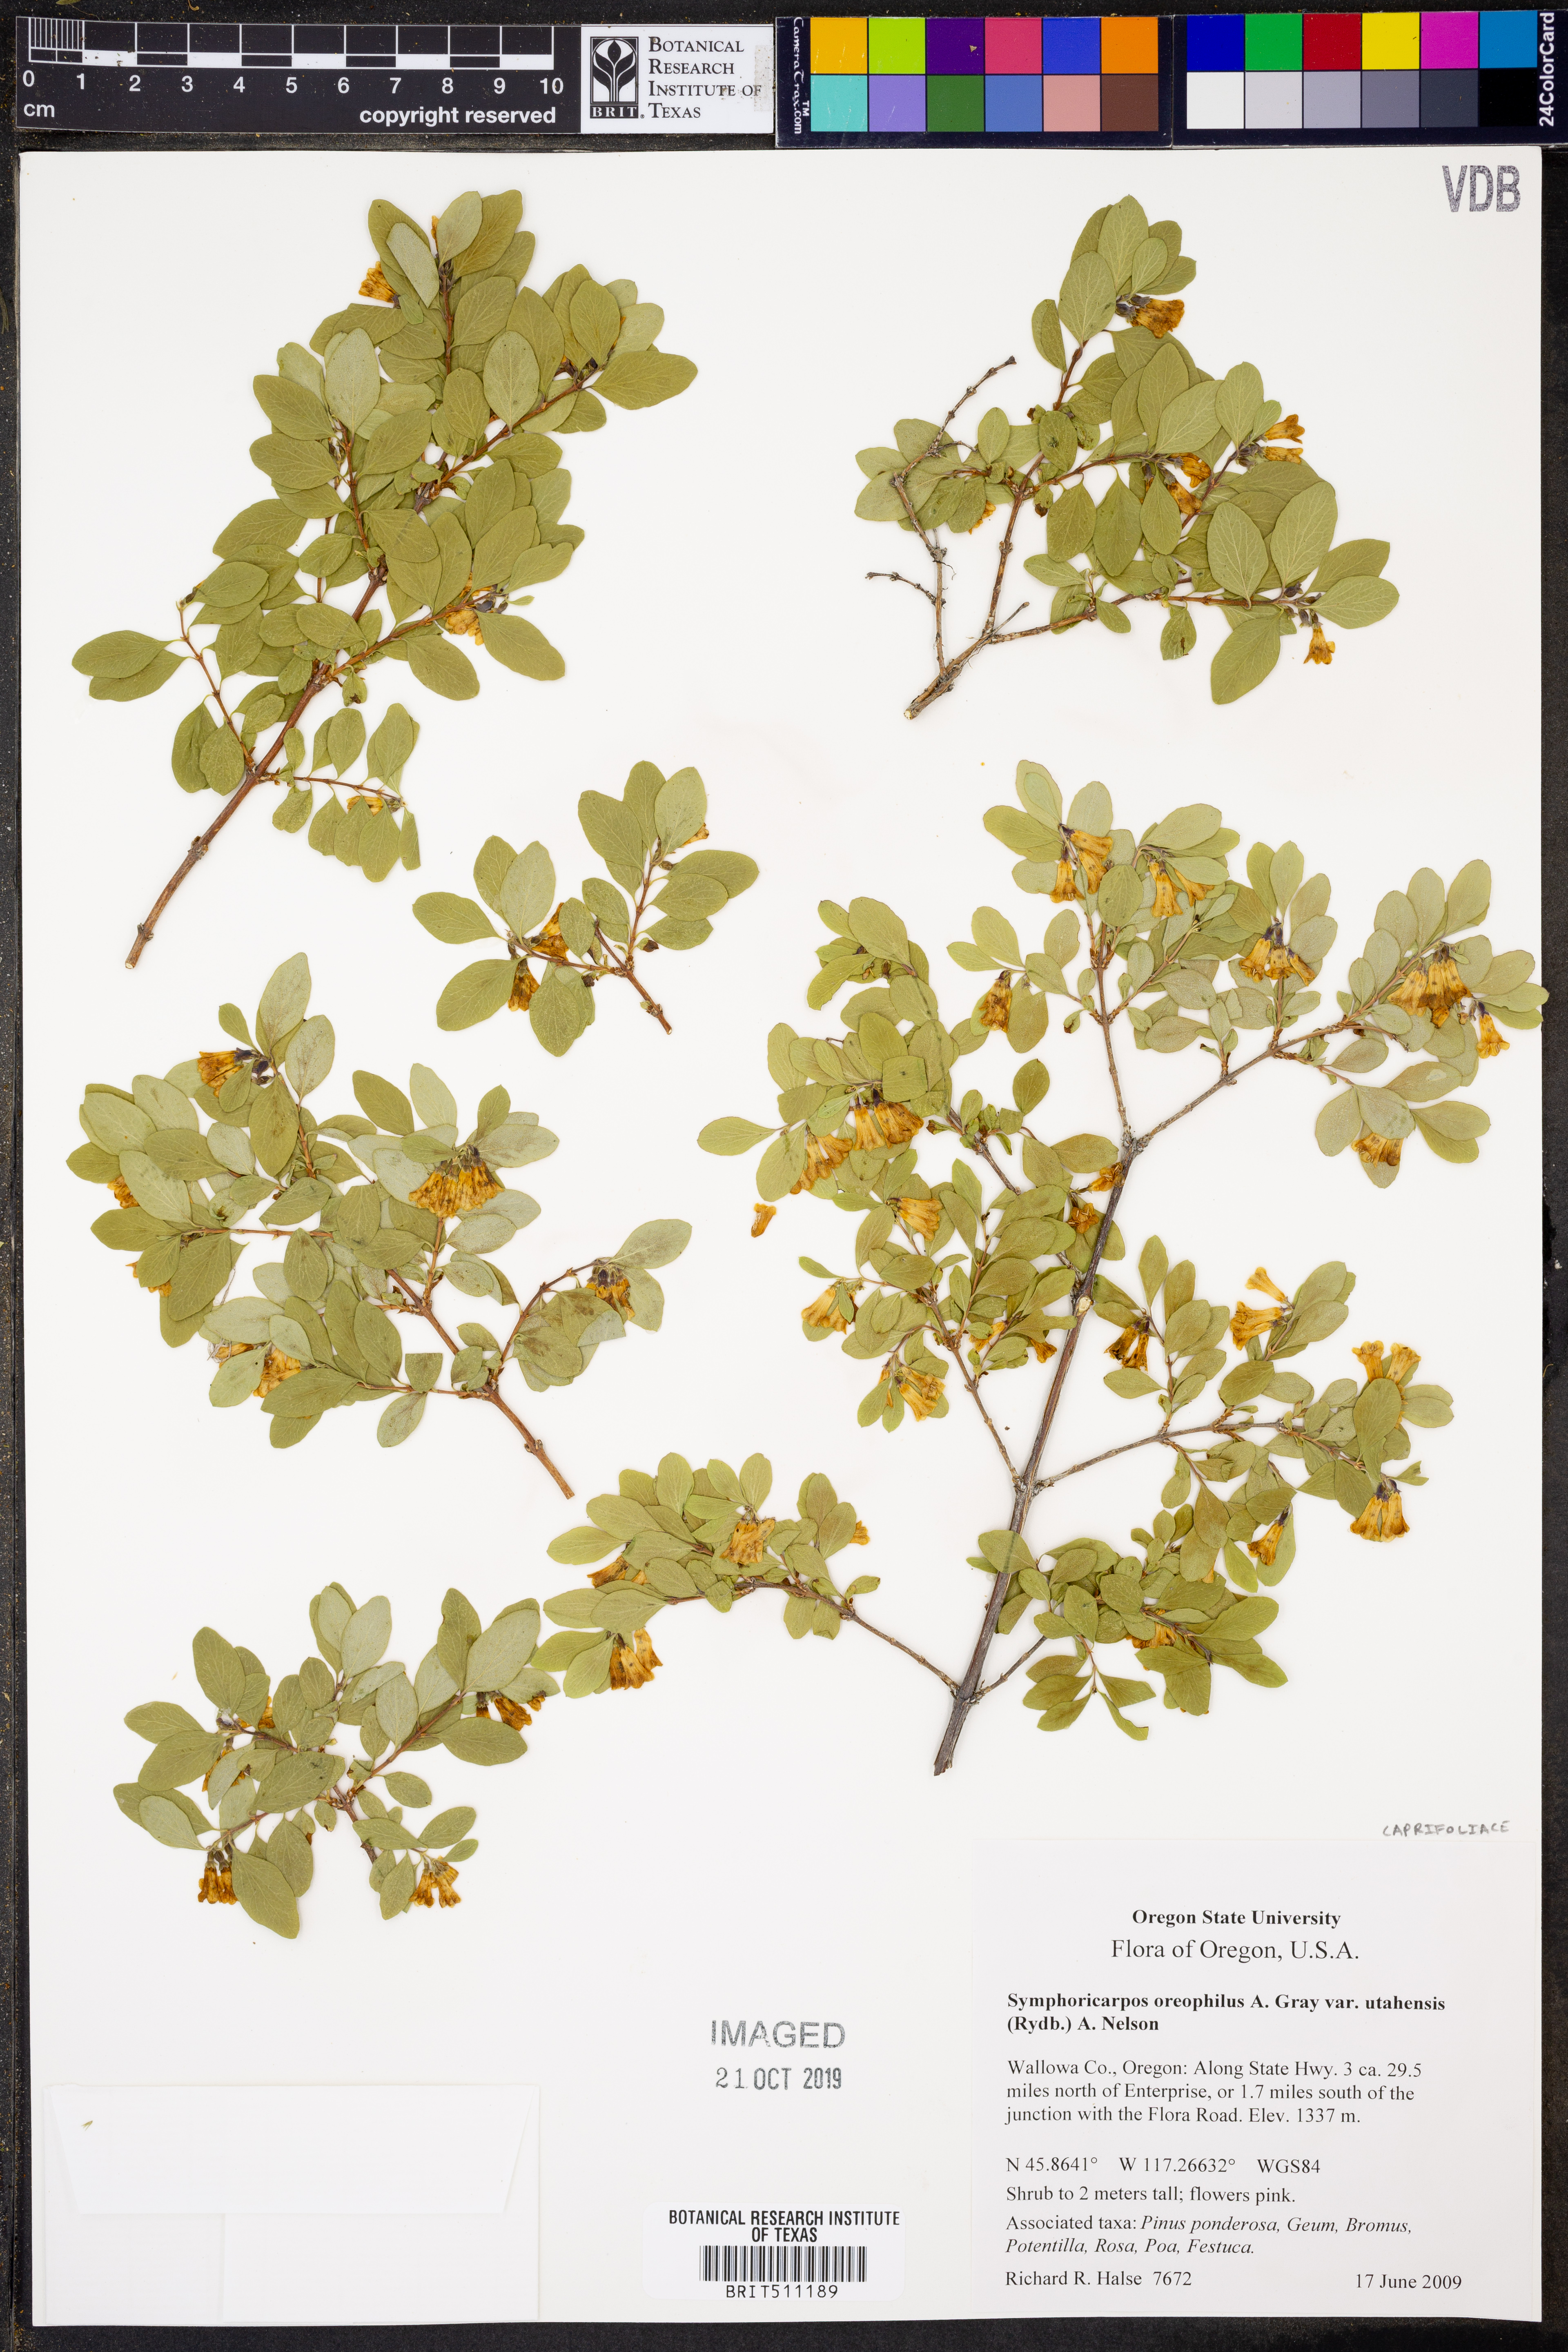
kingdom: Plantae
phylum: Tracheophyta
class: Magnoliopsida
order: Dipsacales
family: Caprifoliaceae
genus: Symphoricarpos
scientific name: Symphoricarpos oreophilus
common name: Mountain snowberry
